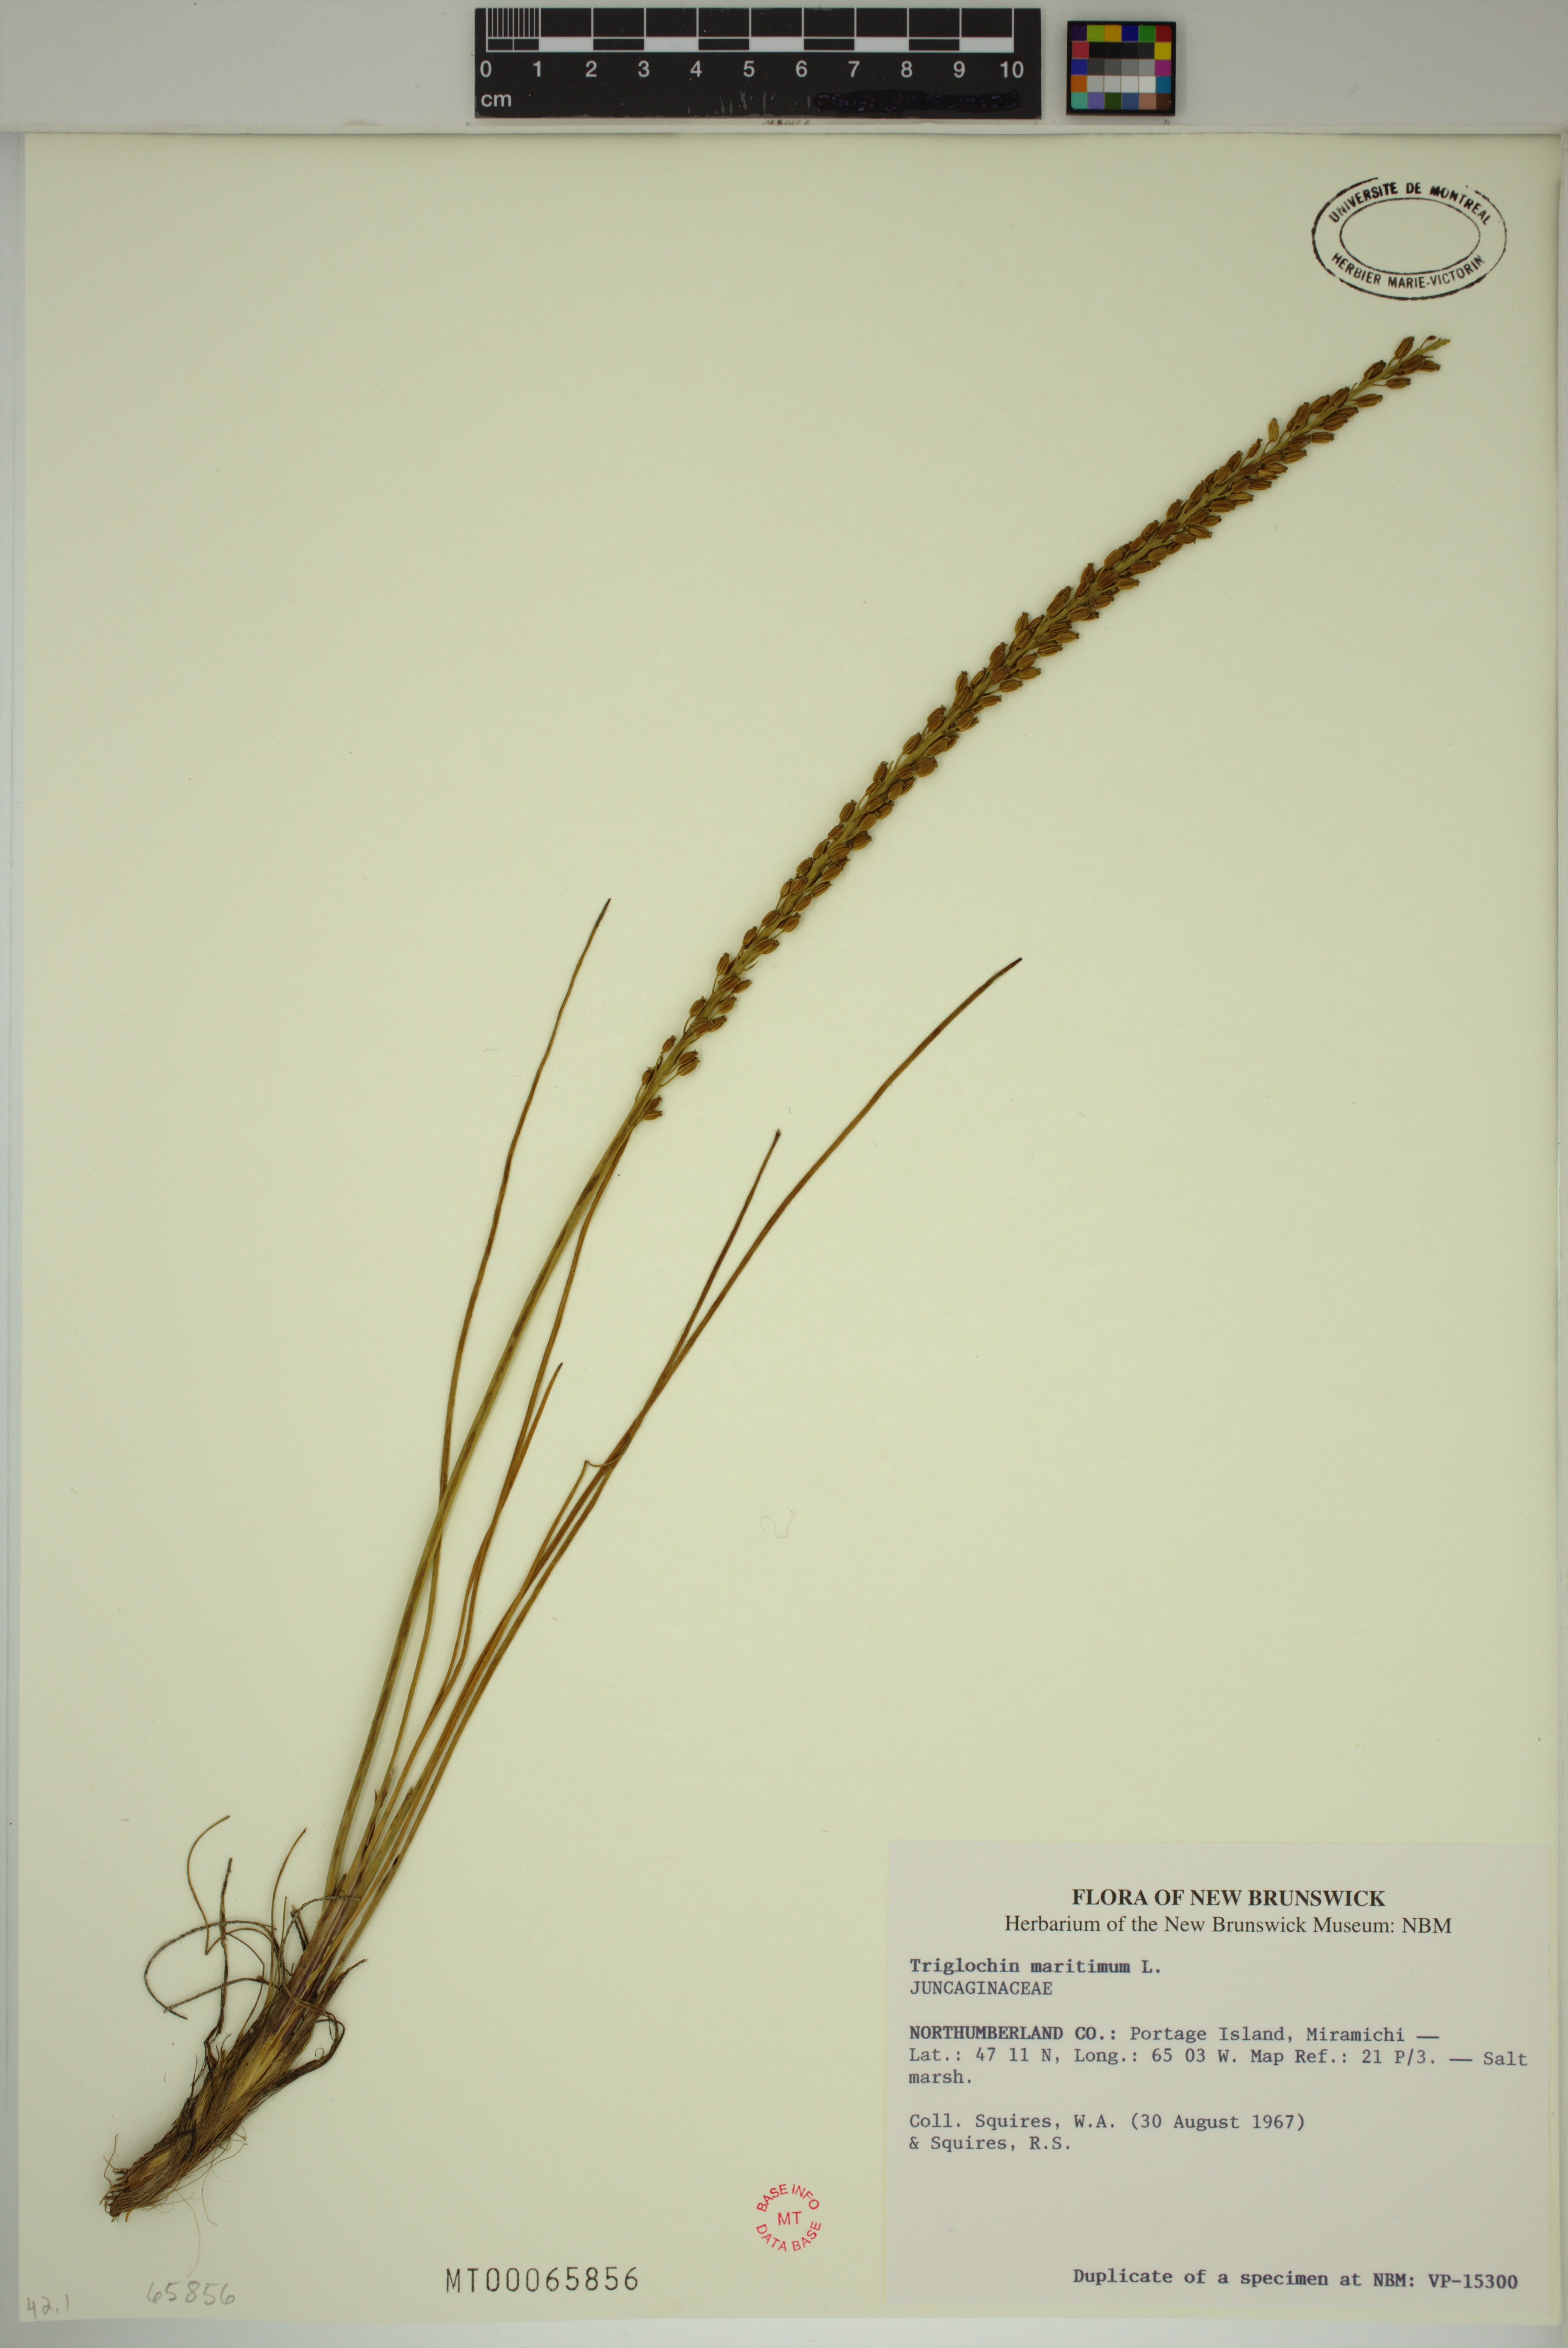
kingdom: Plantae
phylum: Tracheophyta
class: Liliopsida
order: Alismatales
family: Juncaginaceae
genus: Triglochin
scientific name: Triglochin maritima
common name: Sea arrowgrass
